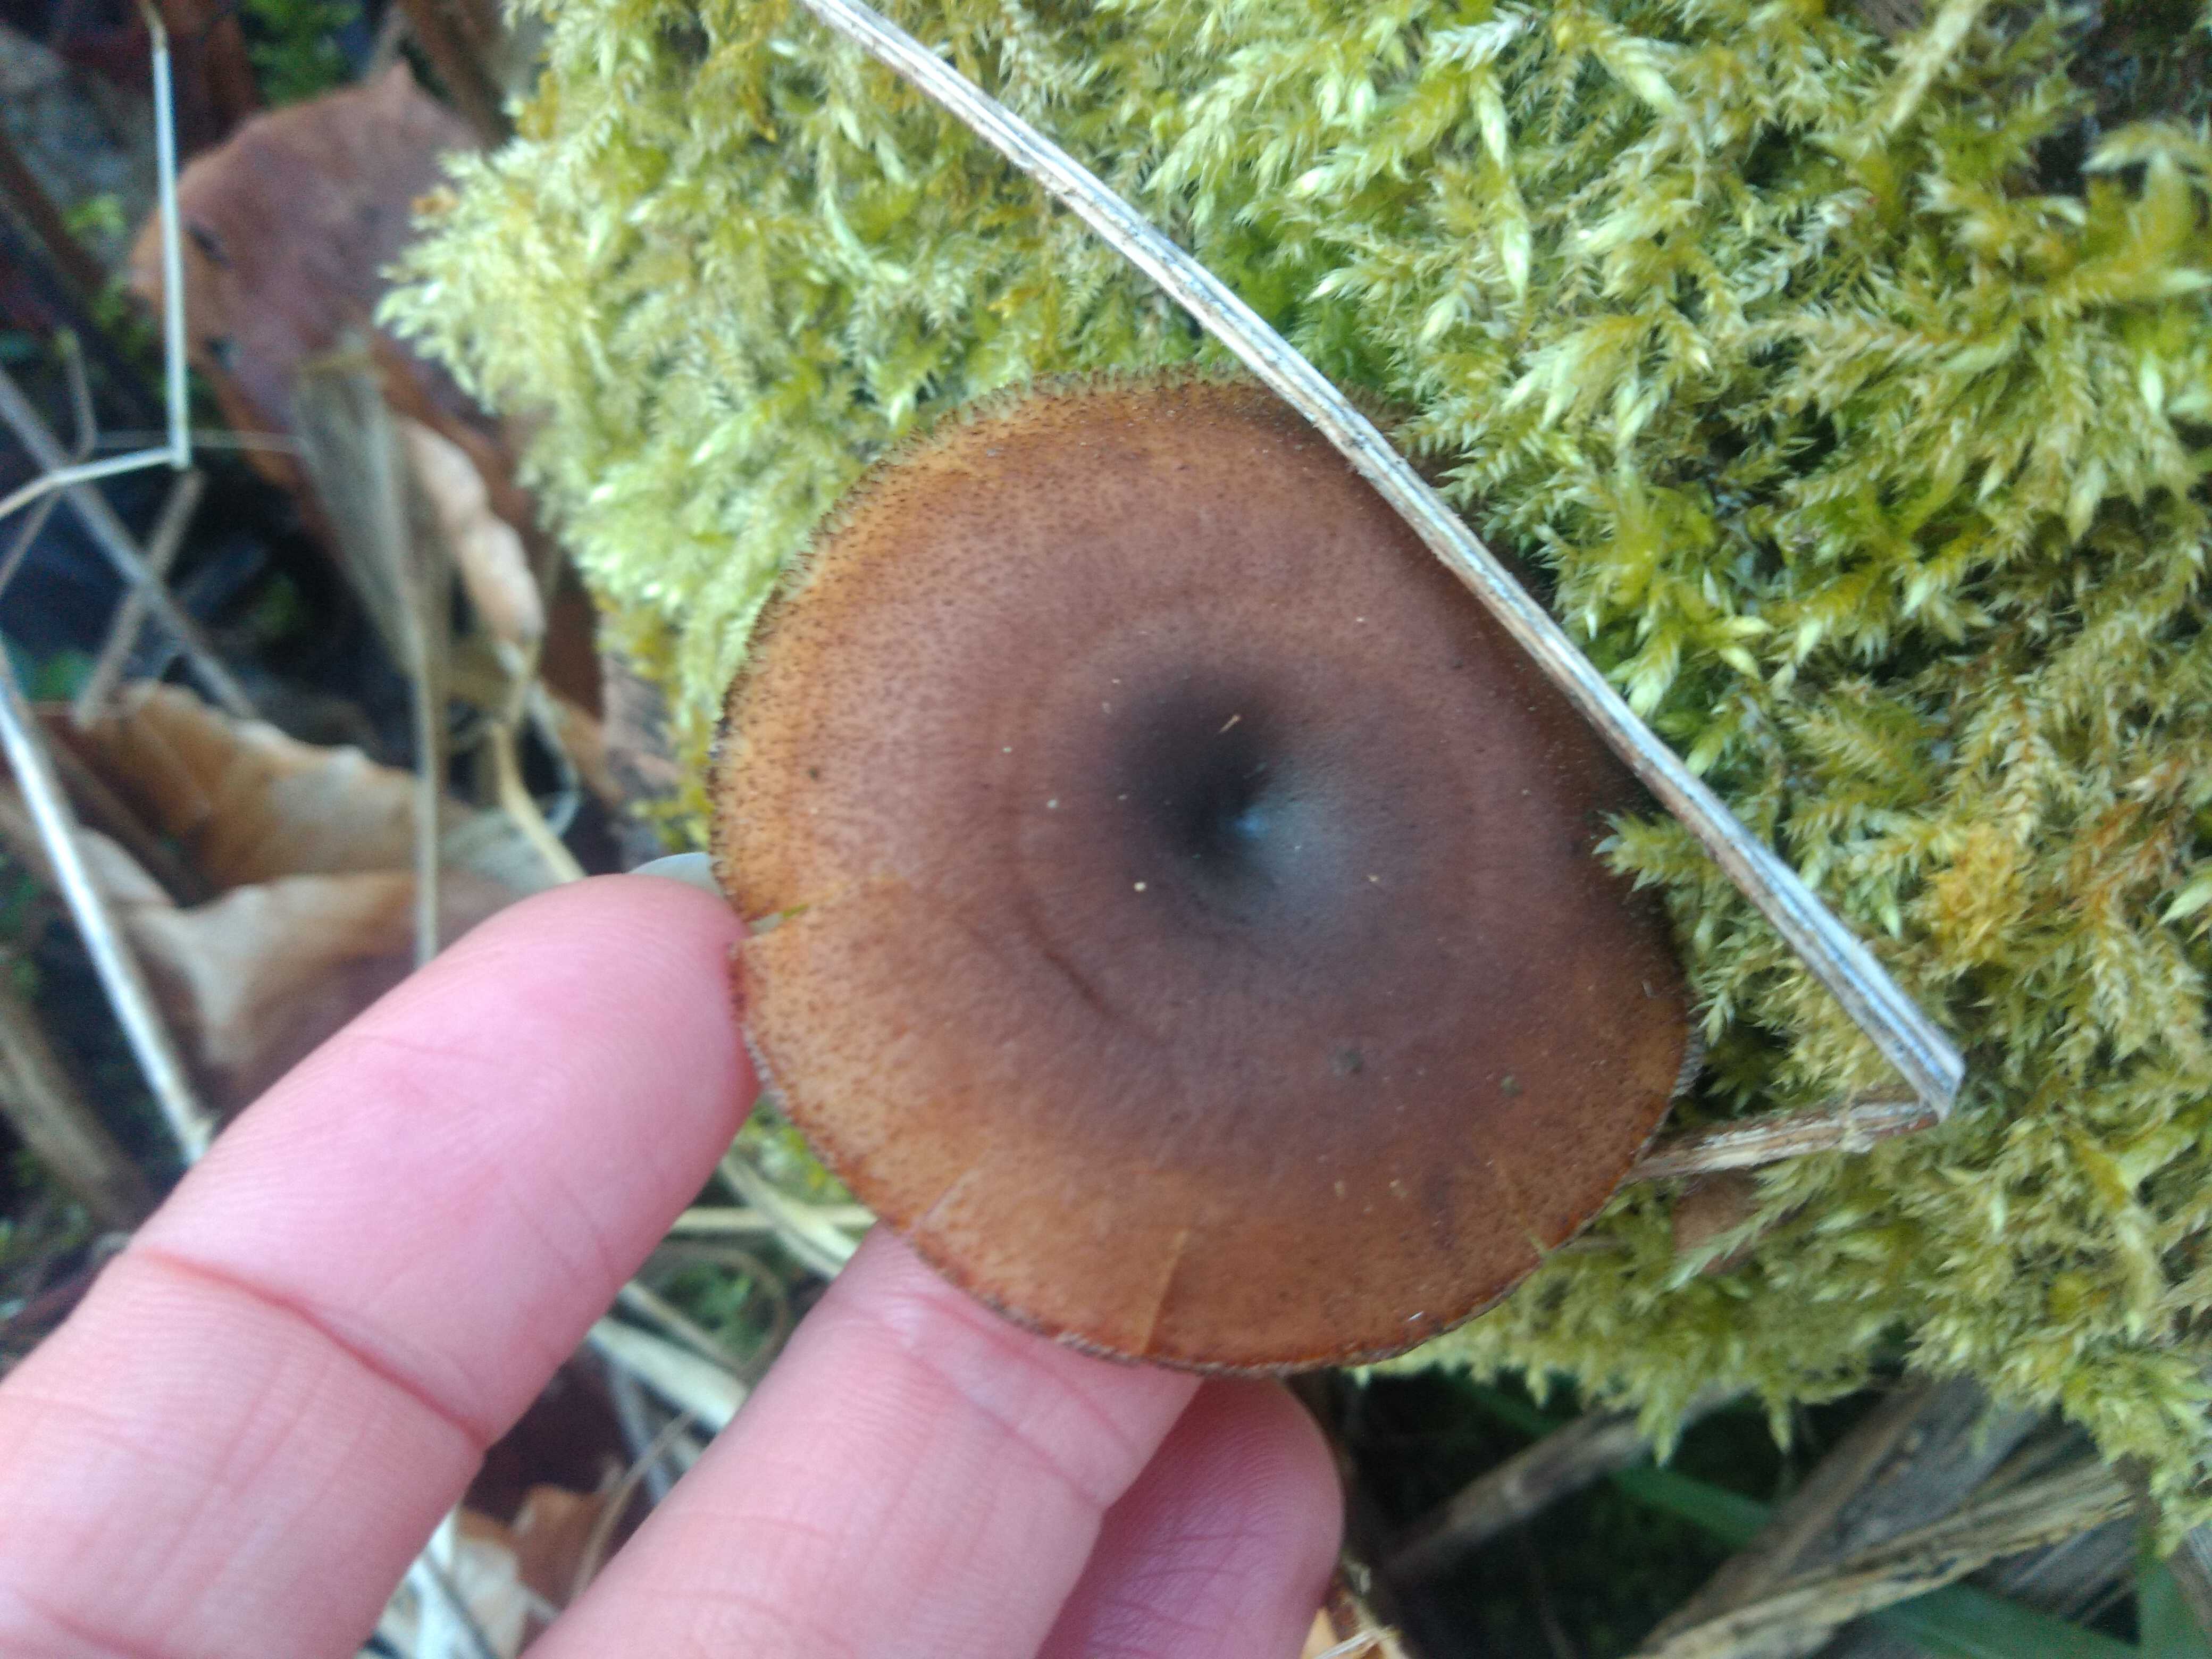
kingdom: Fungi
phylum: Basidiomycota
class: Agaricomycetes
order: Polyporales
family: Polyporaceae
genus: Lentinus
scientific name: Lentinus brumalis
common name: vinter-stilkporesvamp
